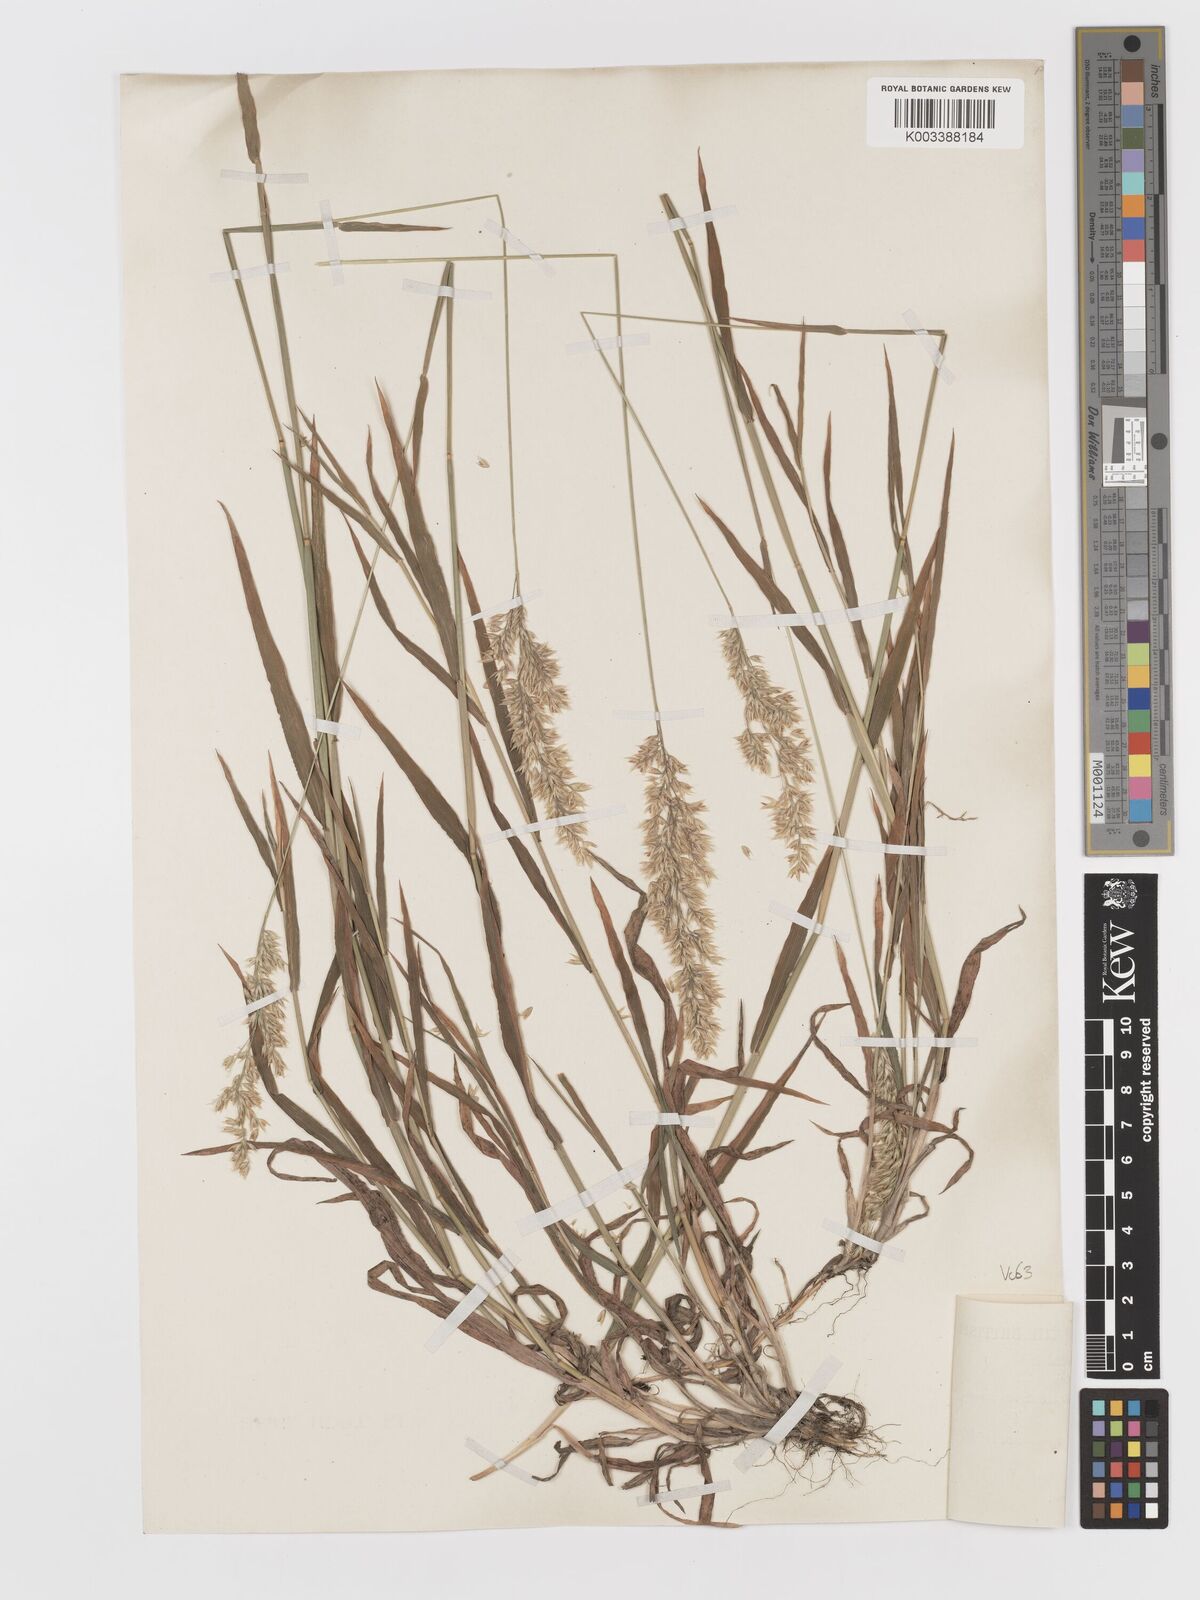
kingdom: Plantae
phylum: Tracheophyta
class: Liliopsida
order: Poales
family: Poaceae
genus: Holcus
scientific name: Holcus mollis
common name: Creeping velvetgrass
